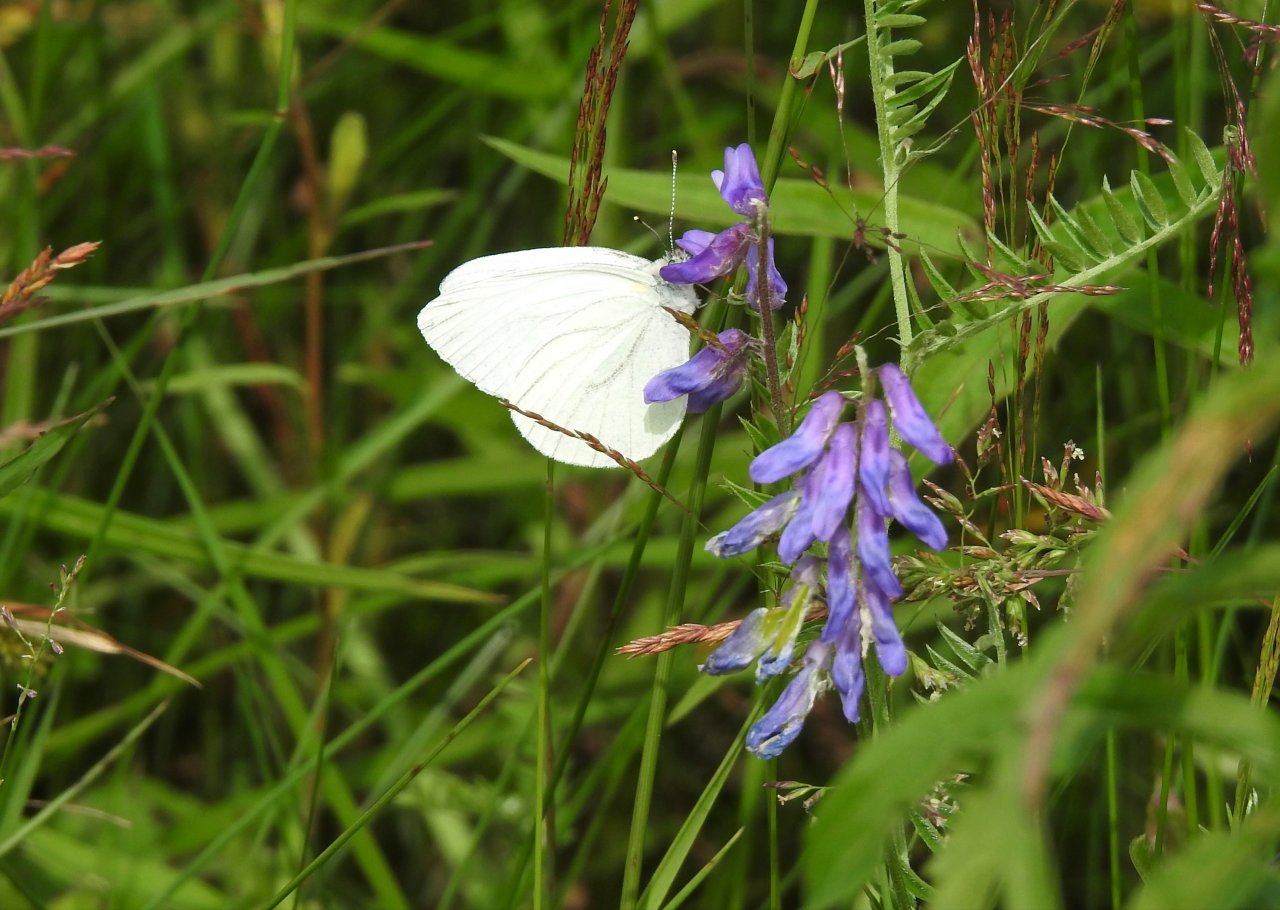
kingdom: Animalia
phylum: Arthropoda
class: Insecta
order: Lepidoptera
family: Pieridae
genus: Pieris
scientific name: Pieris oleracea
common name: Mustard White
